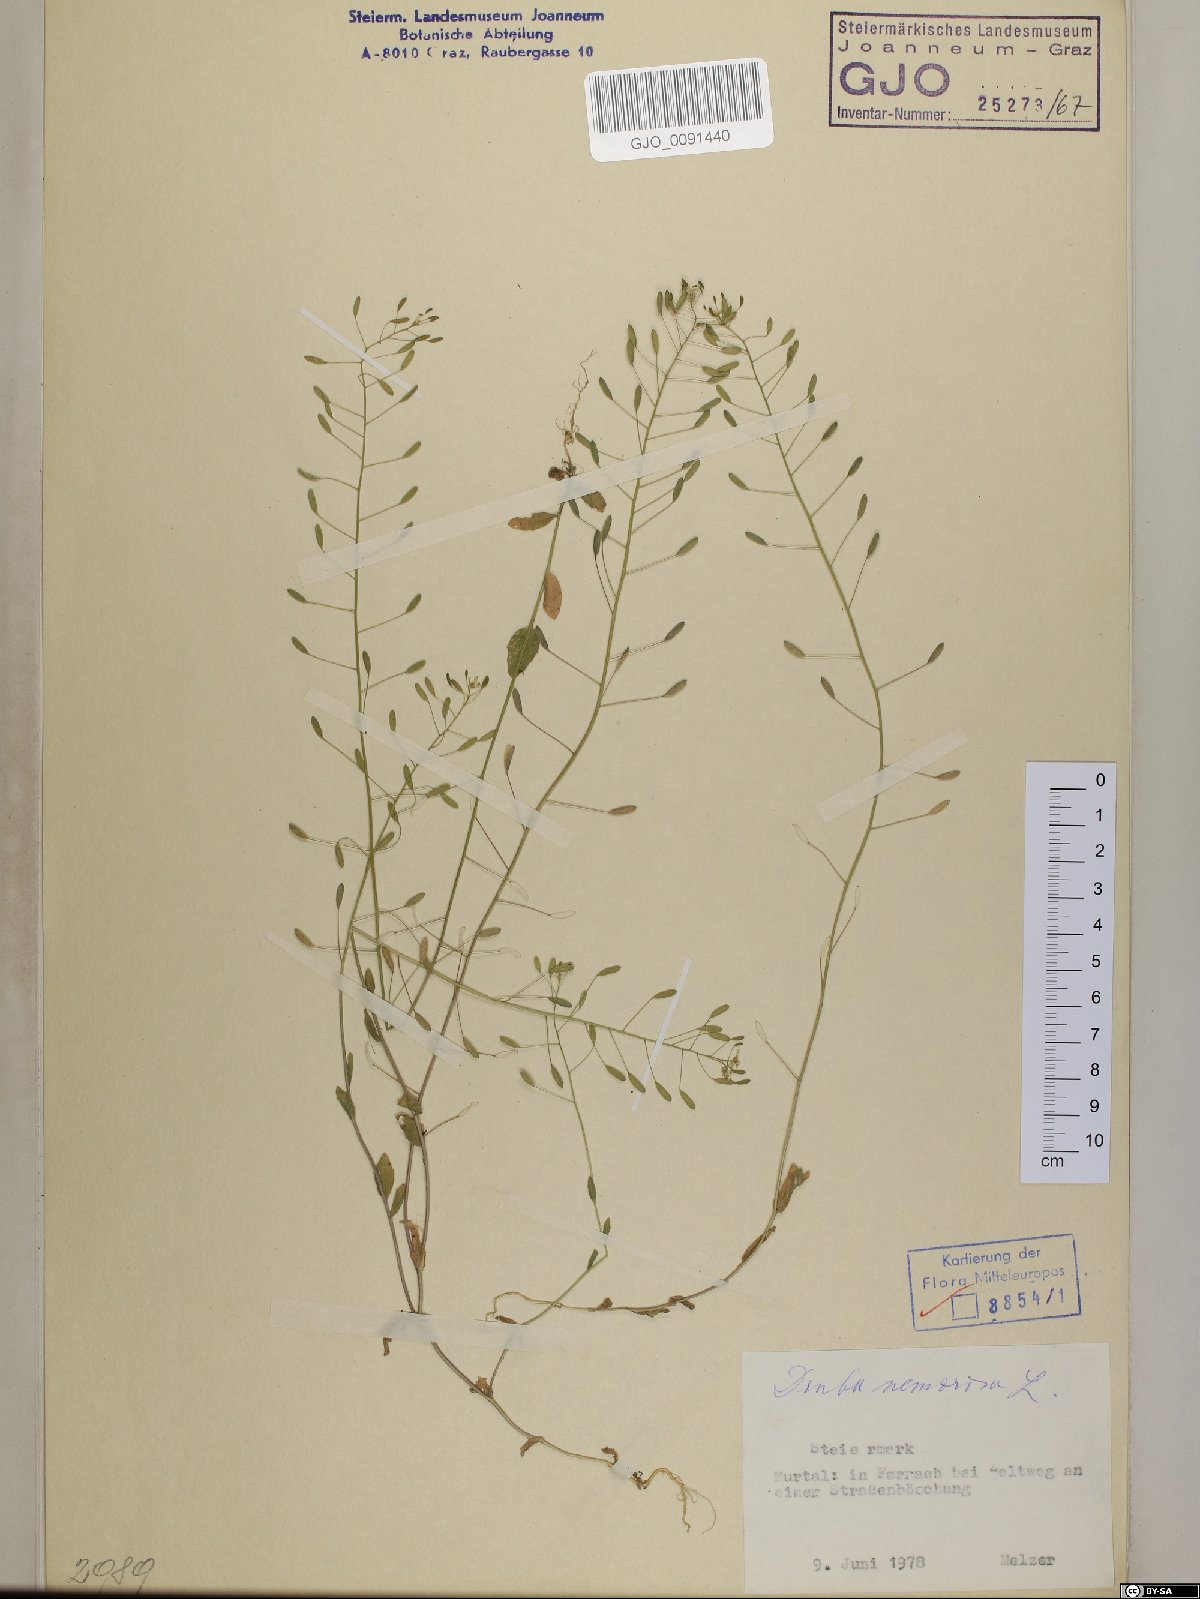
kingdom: Plantae
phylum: Tracheophyta
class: Magnoliopsida
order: Brassicales
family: Brassicaceae
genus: Draba
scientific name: Draba nemorosa
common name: Wood whitlow-grass
